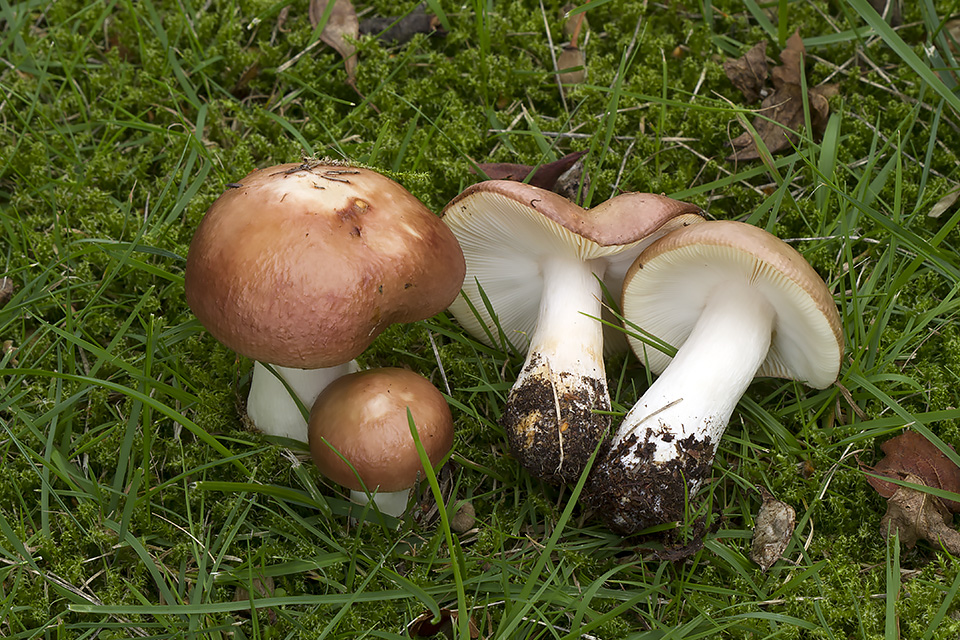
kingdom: Fungi
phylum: Basidiomycota
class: Agaricomycetes
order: Russulales
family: Russulaceae
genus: Russula
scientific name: Russula versicolor
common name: foranderlig skørhat
